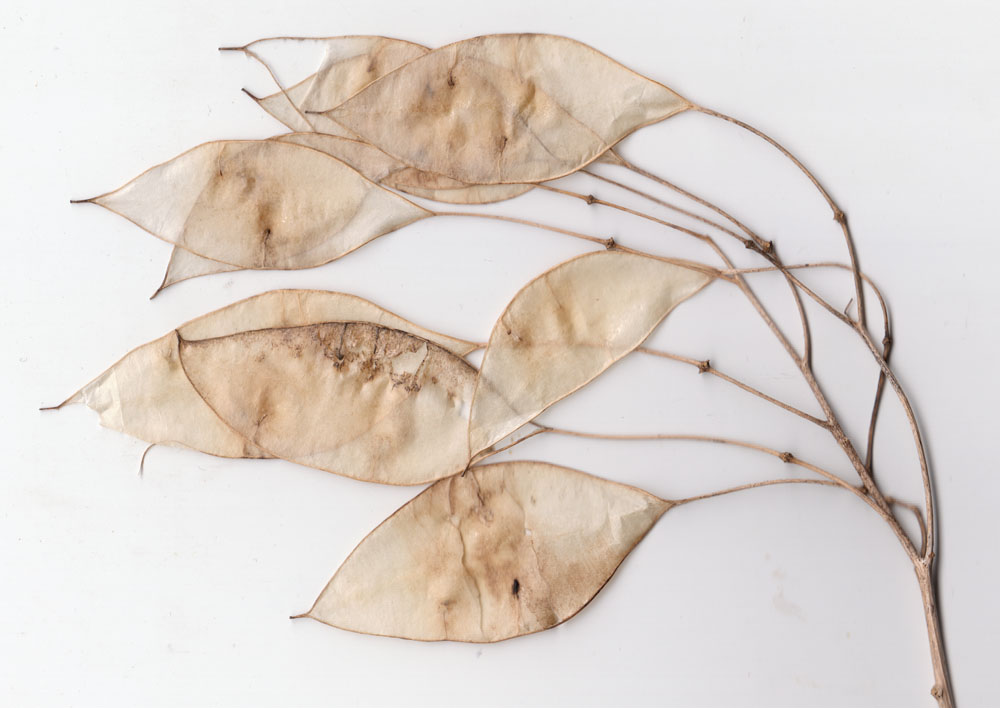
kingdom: Plantae
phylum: Tracheophyta
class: Magnoliopsida
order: Brassicales
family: Brassicaceae
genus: Lunaria
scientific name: Lunaria rediviva
